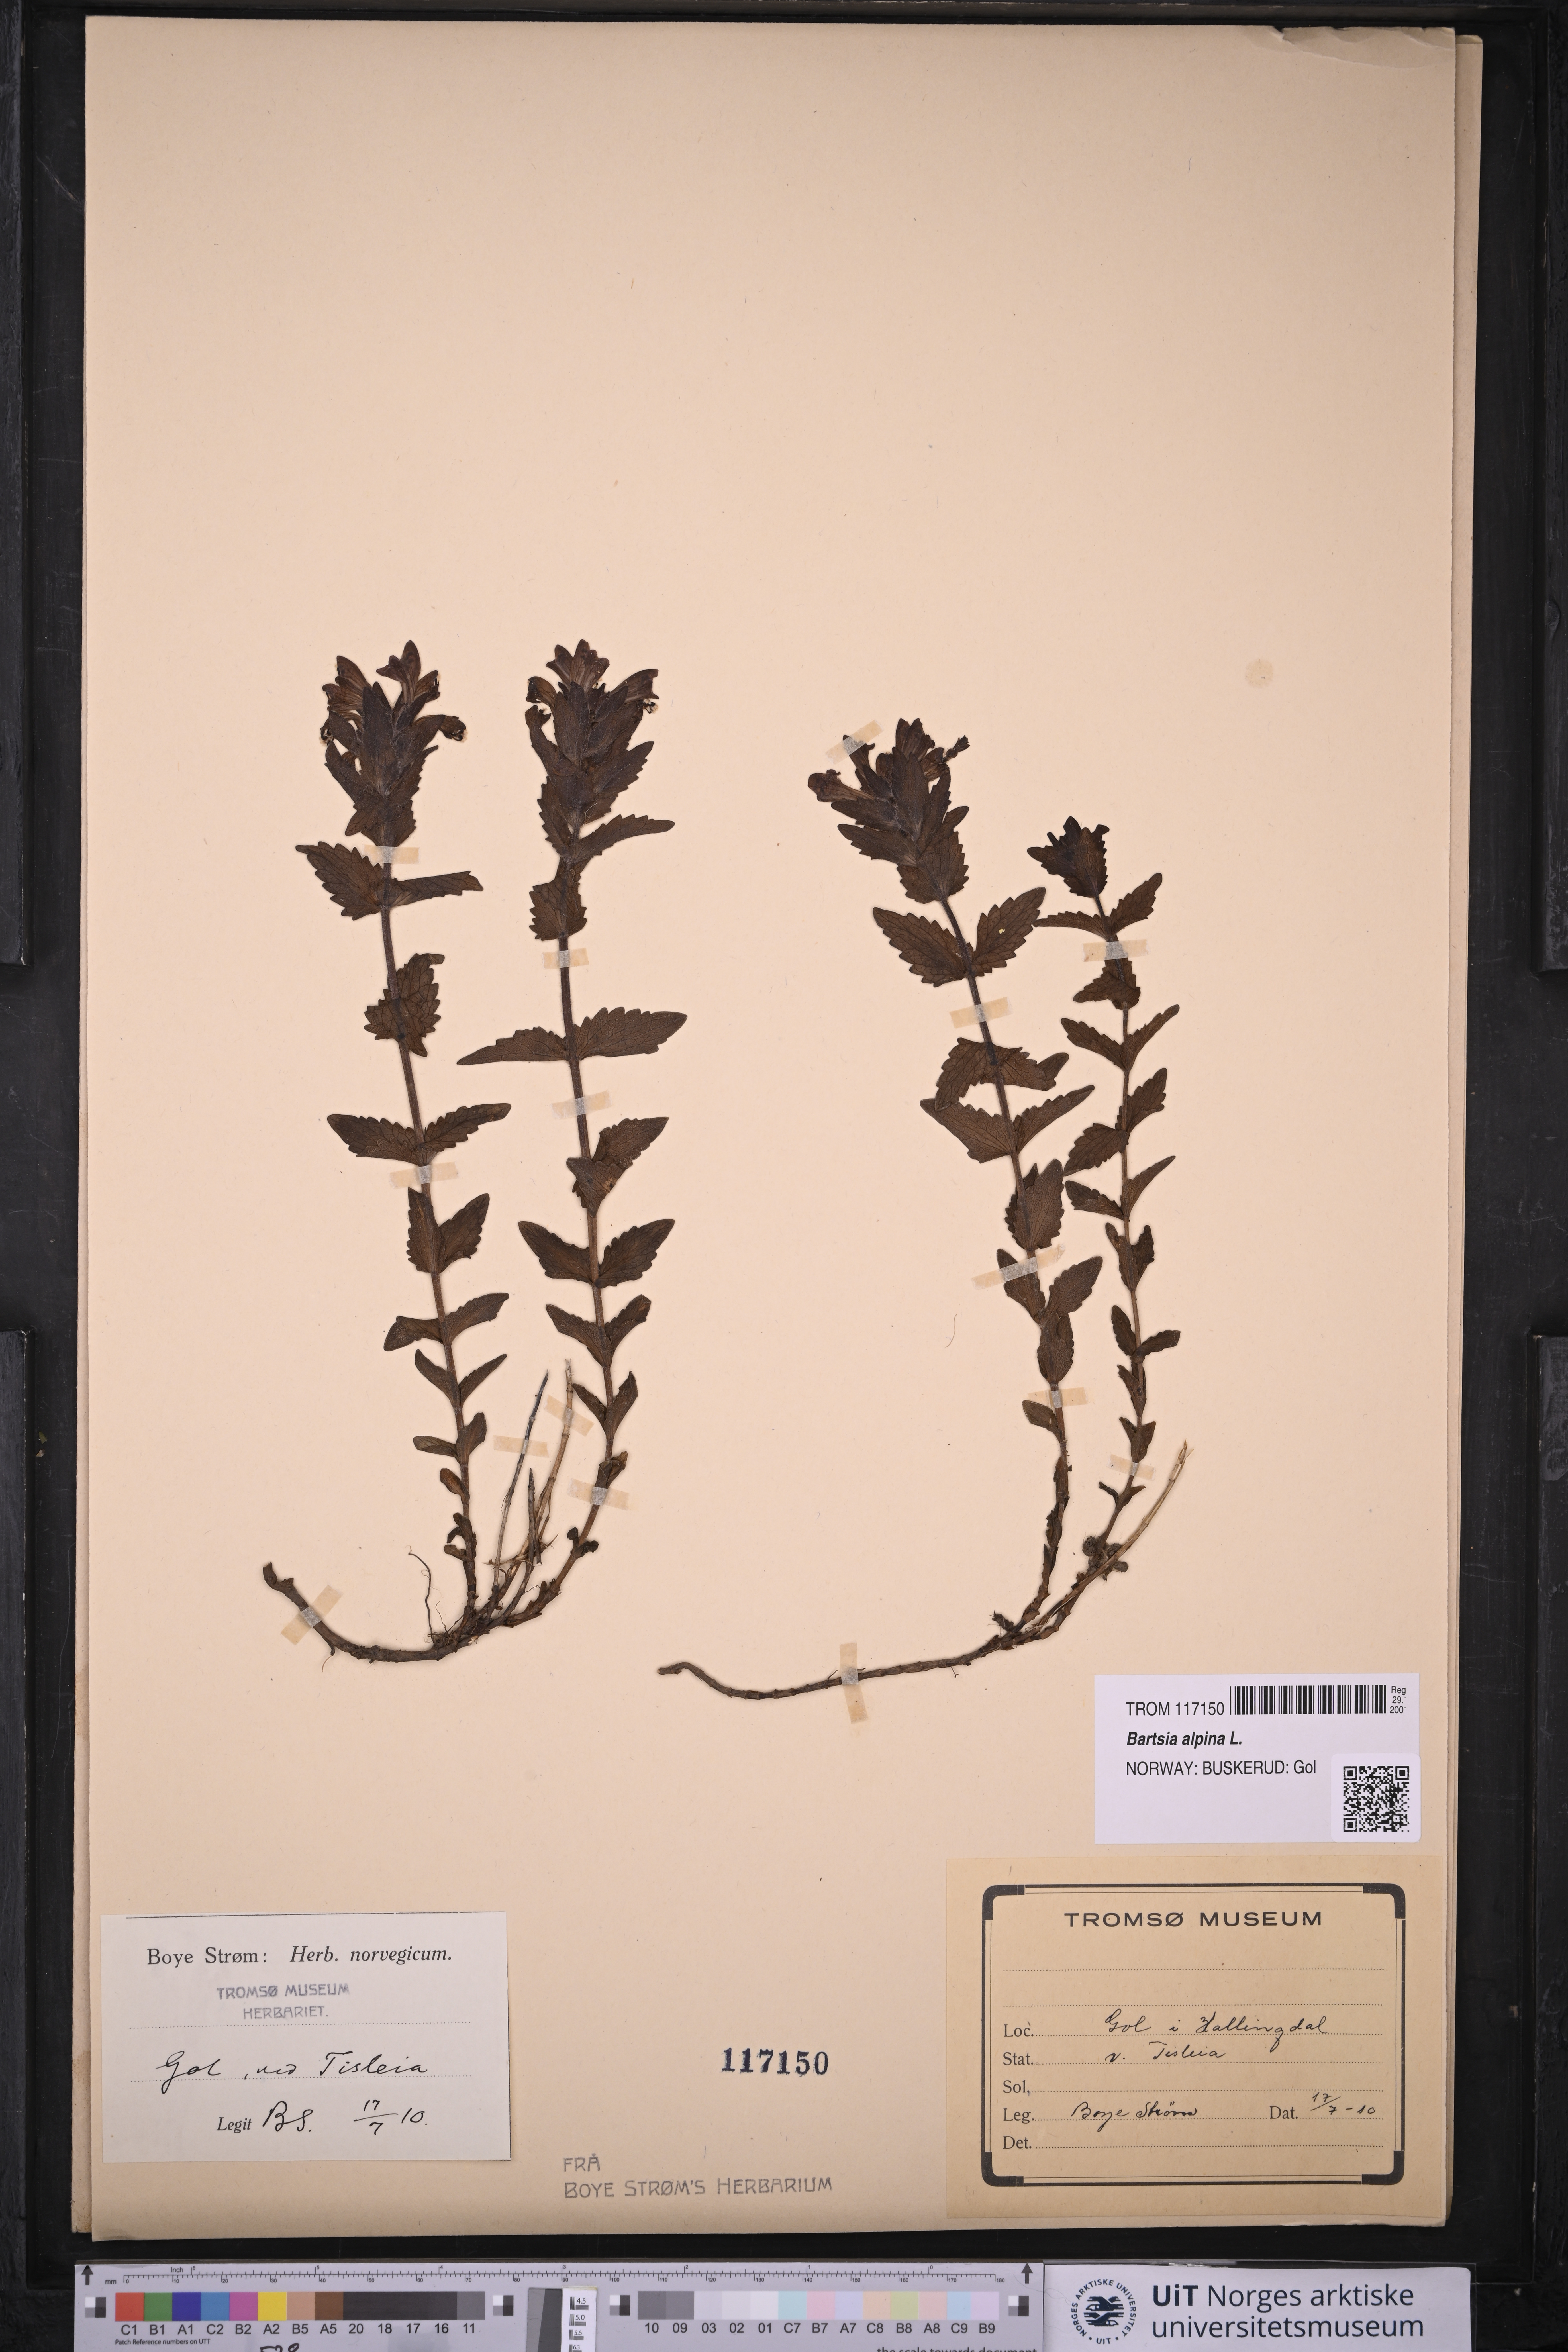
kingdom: Plantae
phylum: Tracheophyta
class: Magnoliopsida
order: Lamiales
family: Orobanchaceae
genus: Bartsia
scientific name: Bartsia alpina
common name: Alpine bartsia
